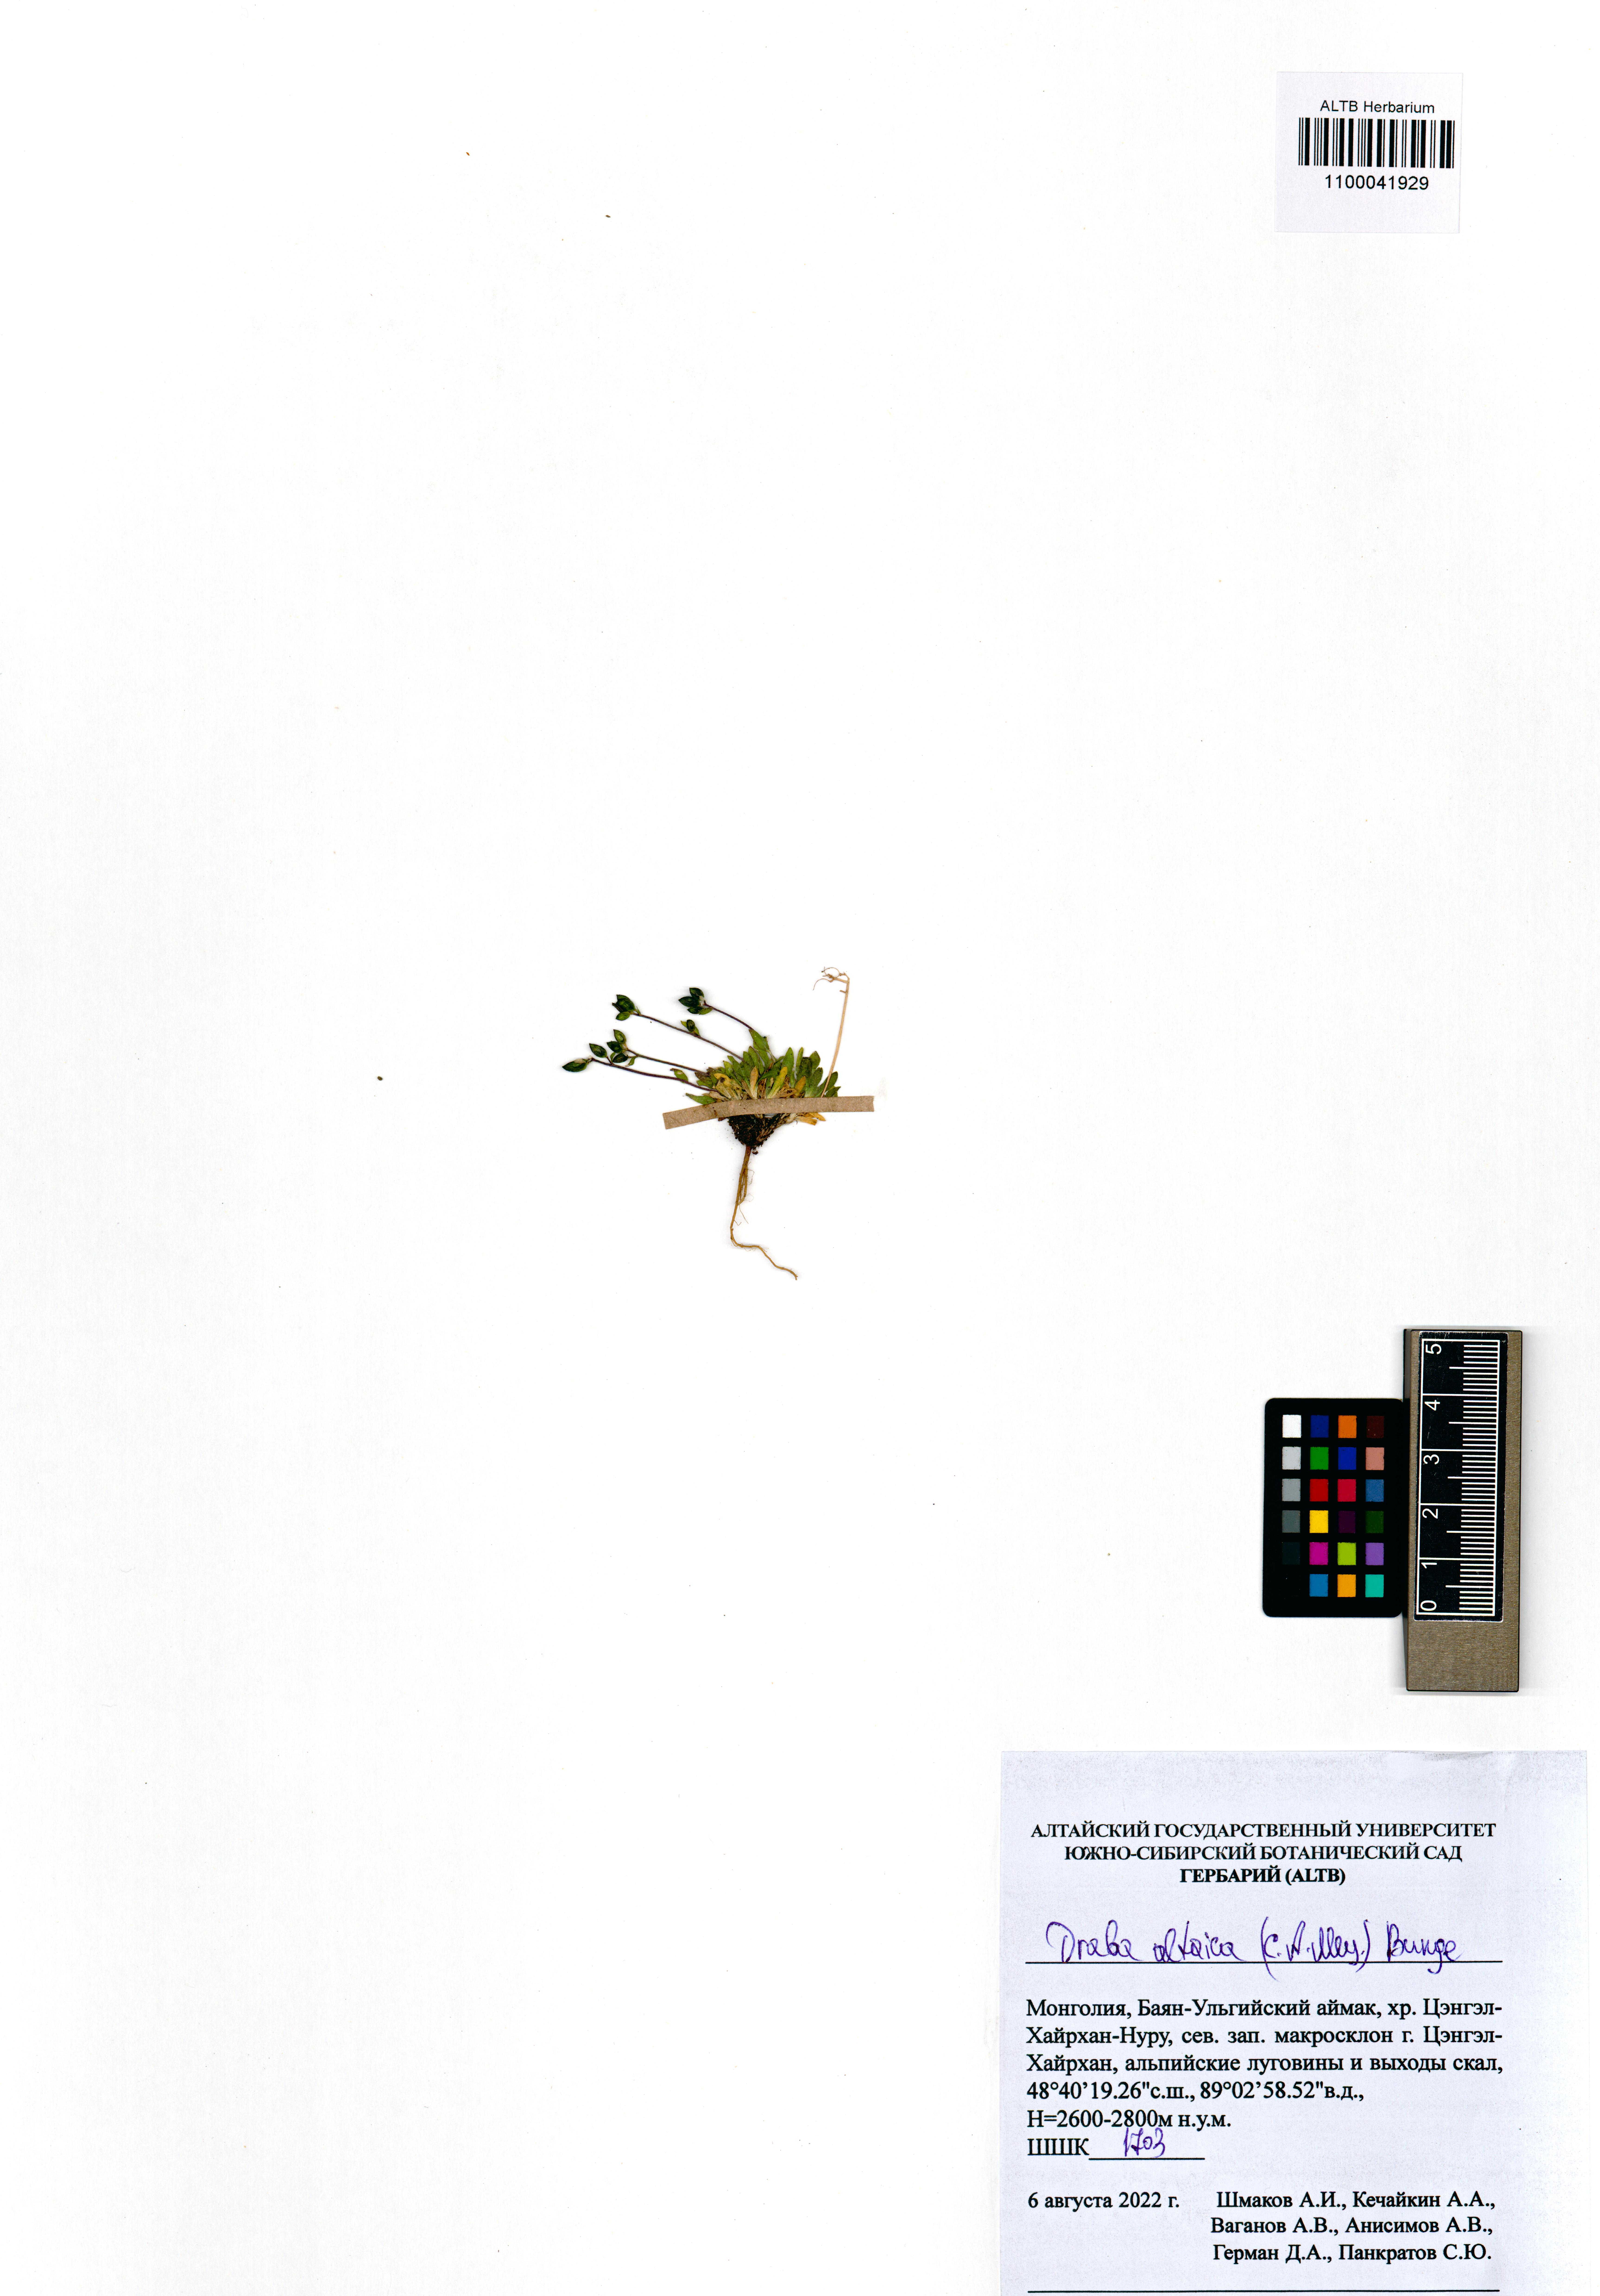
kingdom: Plantae
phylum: Tracheophyta
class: Magnoliopsida
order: Brassicales
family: Brassicaceae
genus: Draba
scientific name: Draba altaica
